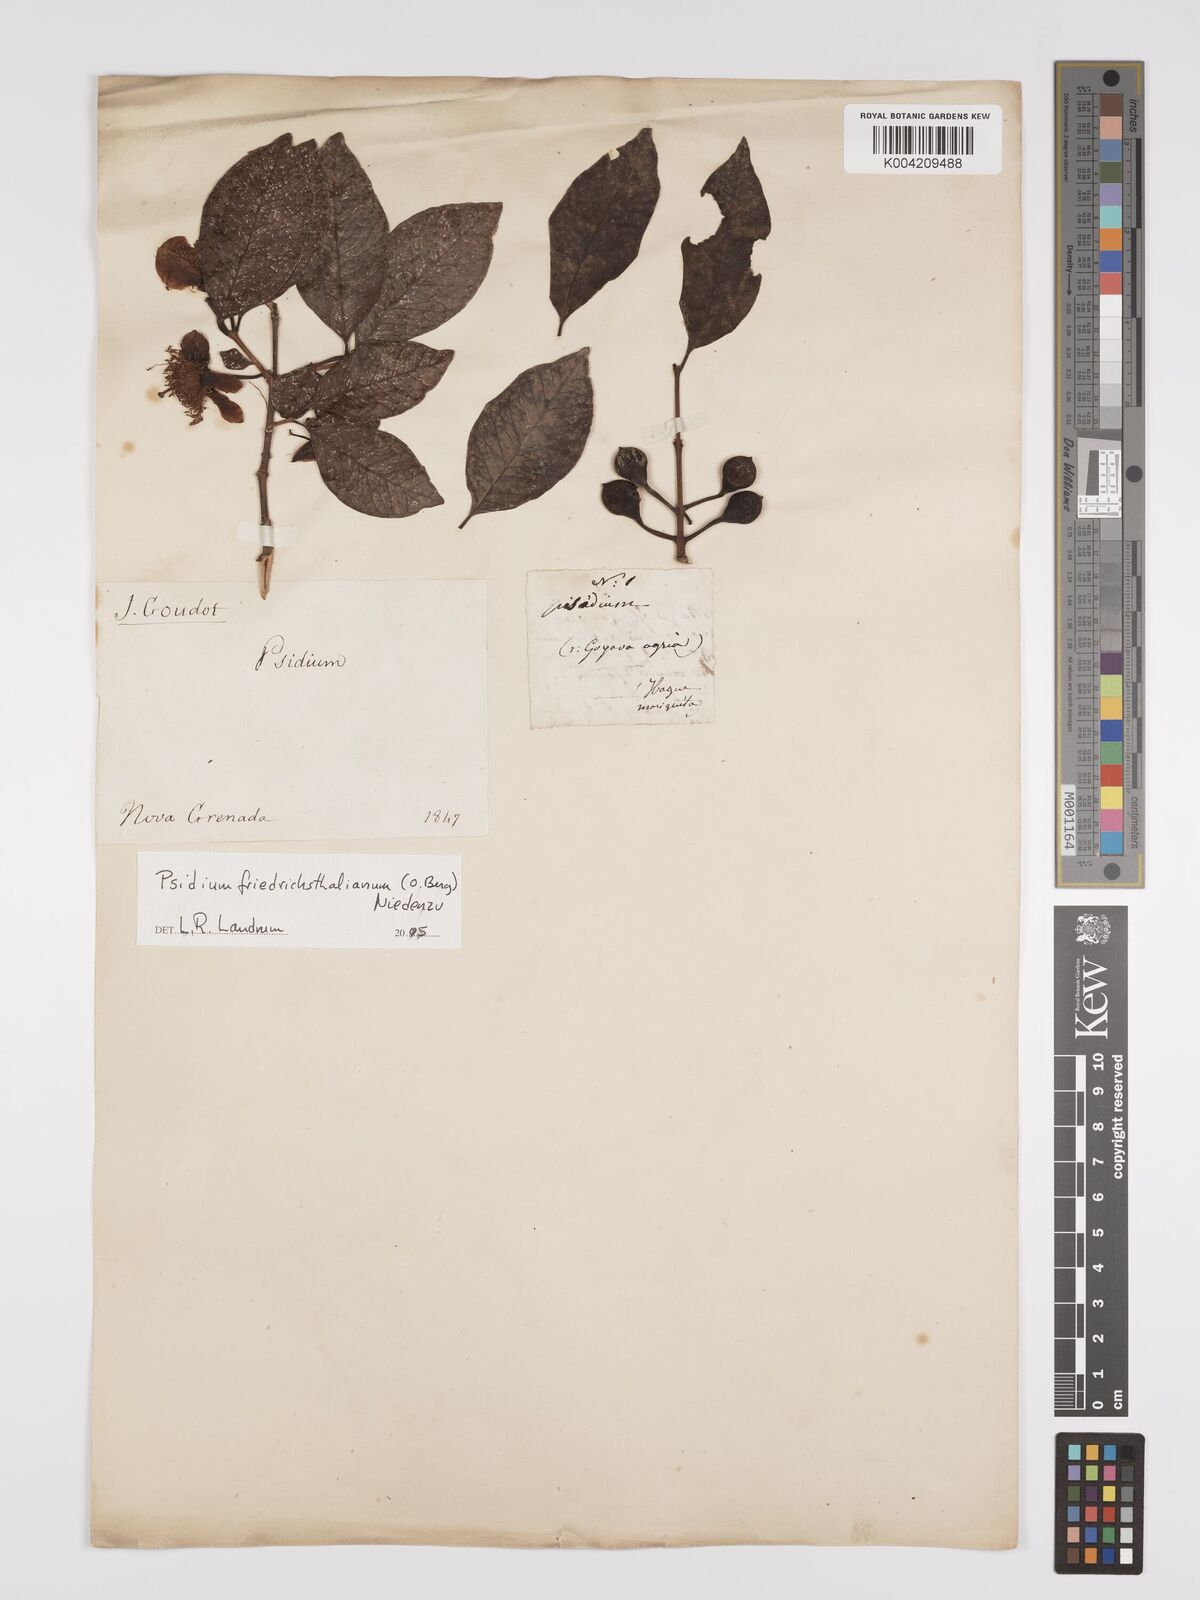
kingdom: Plantae
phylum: Tracheophyta
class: Magnoliopsida
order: Myrtales
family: Myrtaceae
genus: Psidium
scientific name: Psidium friedrichsthalianum
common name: Costa rican guava
